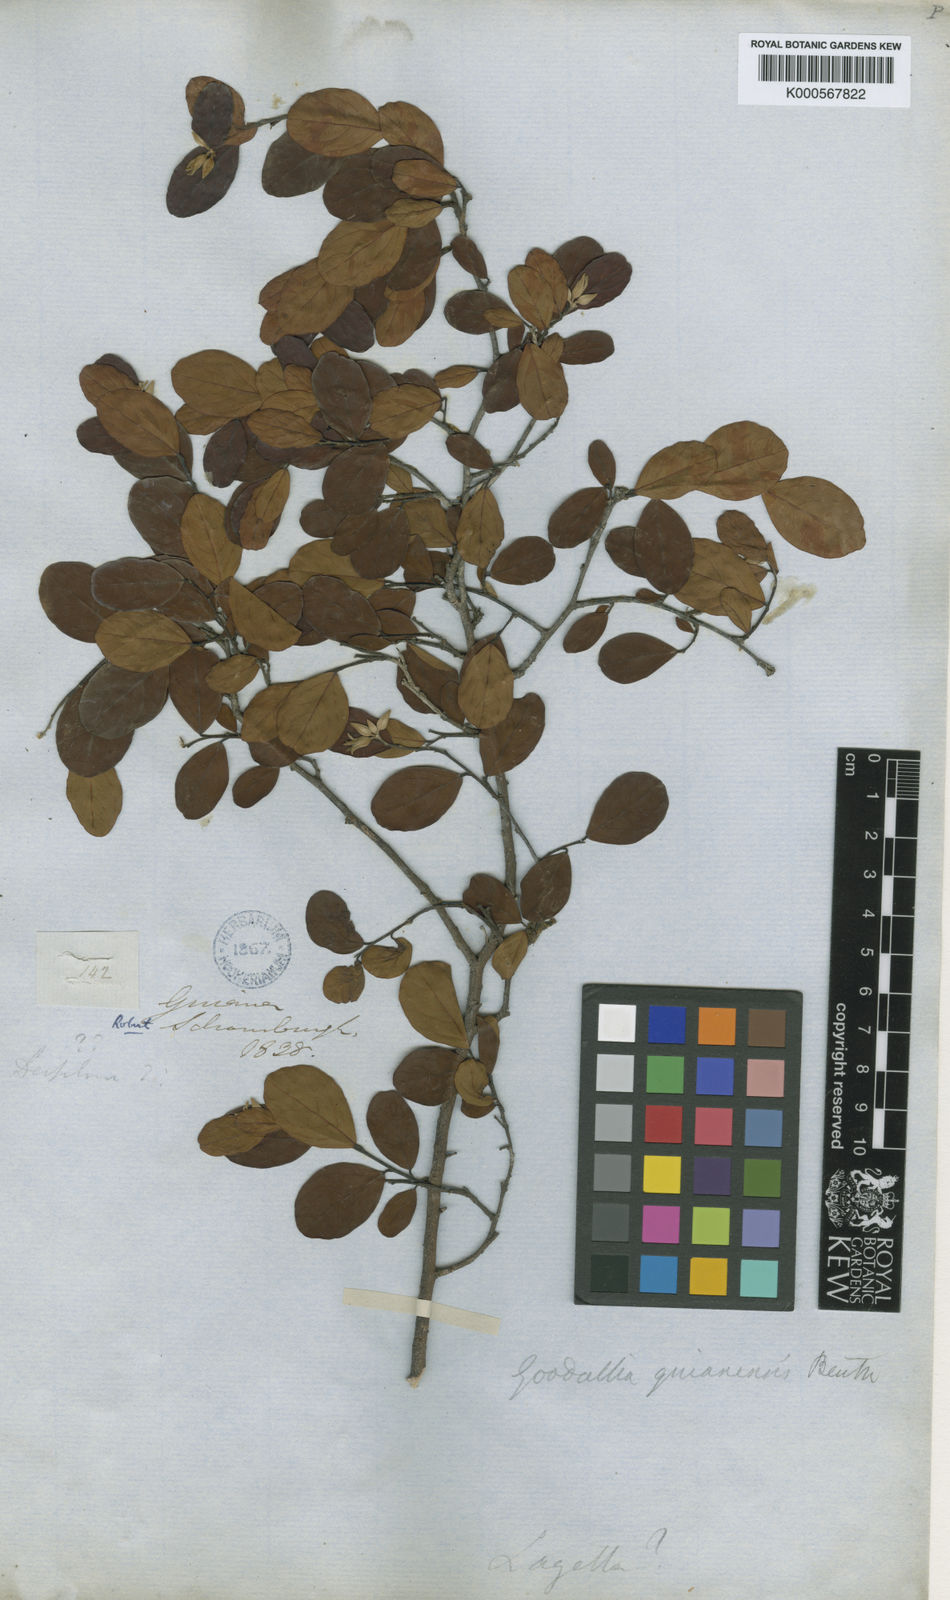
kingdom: Plantae
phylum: Tracheophyta
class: Magnoliopsida
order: Malvales
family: Thymelaeaceae
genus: Goodallia
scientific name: Goodallia guianensis
